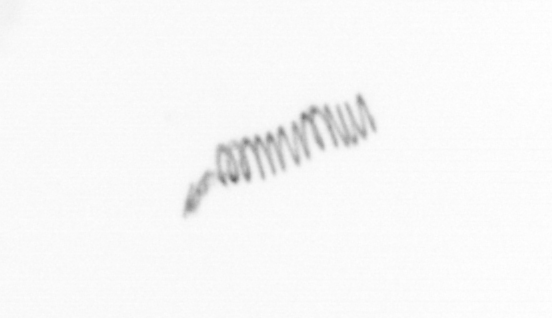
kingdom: Chromista
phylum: Ochrophyta
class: Bacillariophyceae
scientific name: Bacillariophyceae
